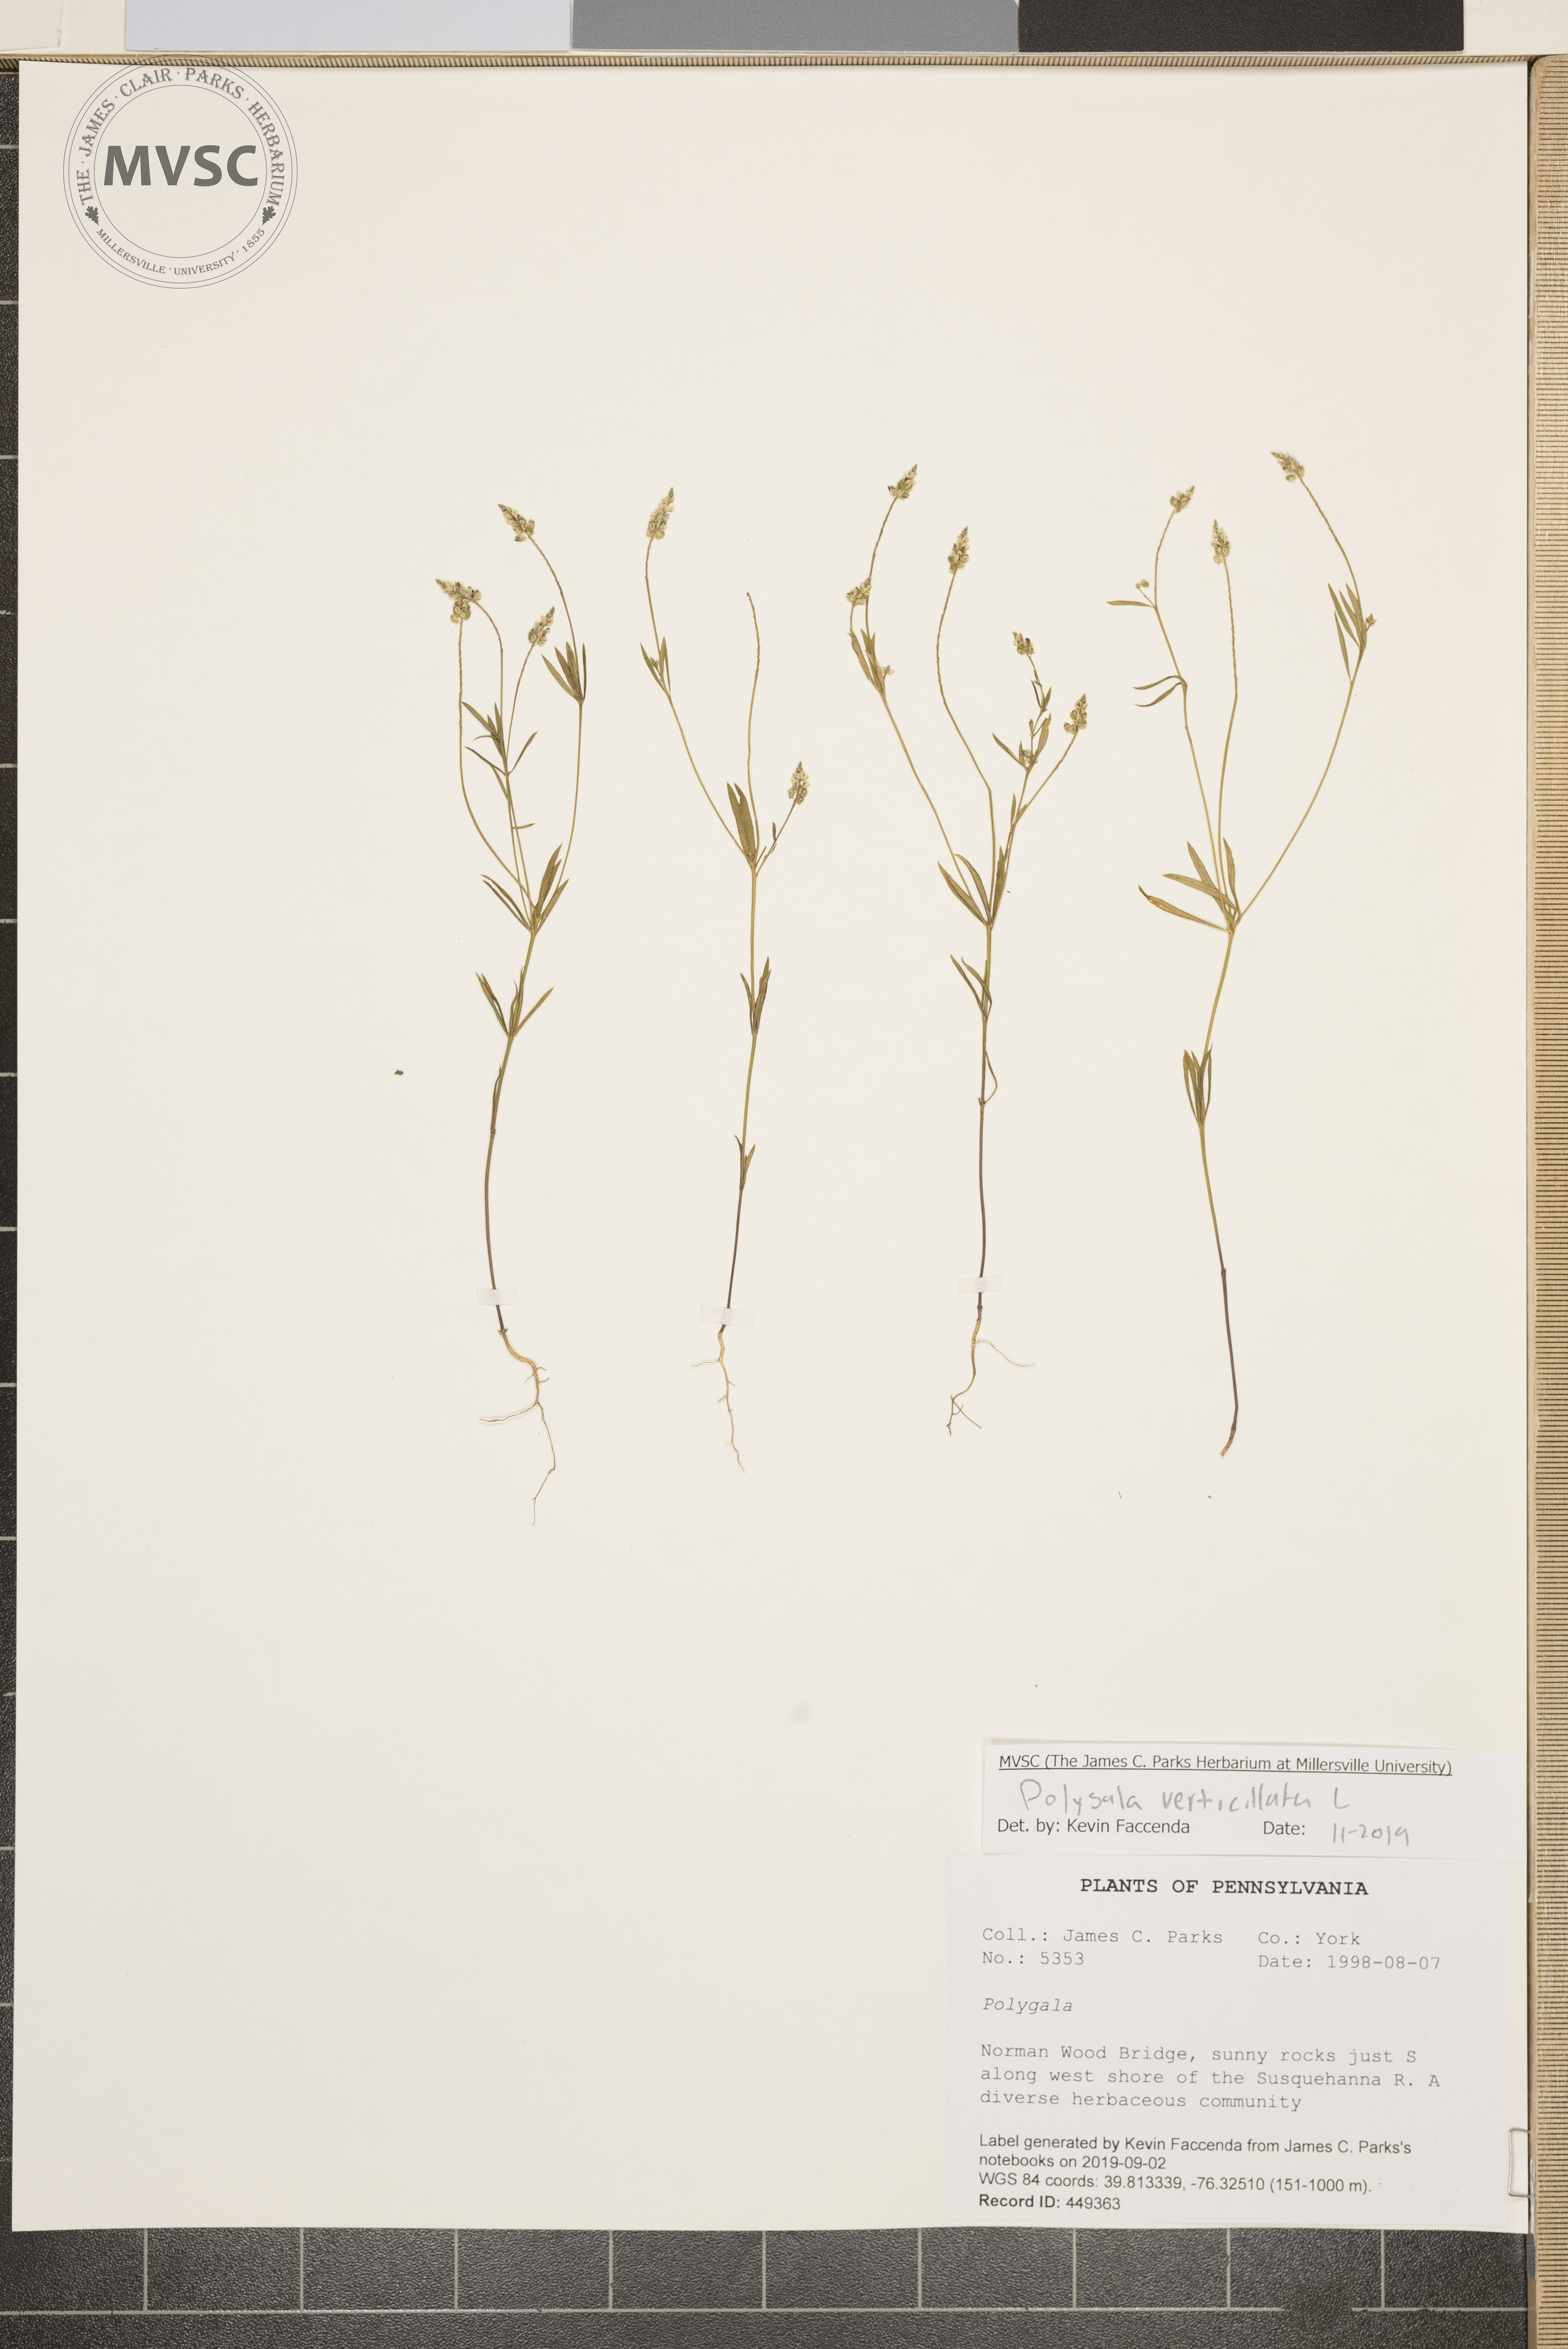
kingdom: Plantae
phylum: Tracheophyta
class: Magnoliopsida
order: Fabales
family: Polygalaceae
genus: Polygala
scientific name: Polygala verticillata
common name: Whorl milkwort
